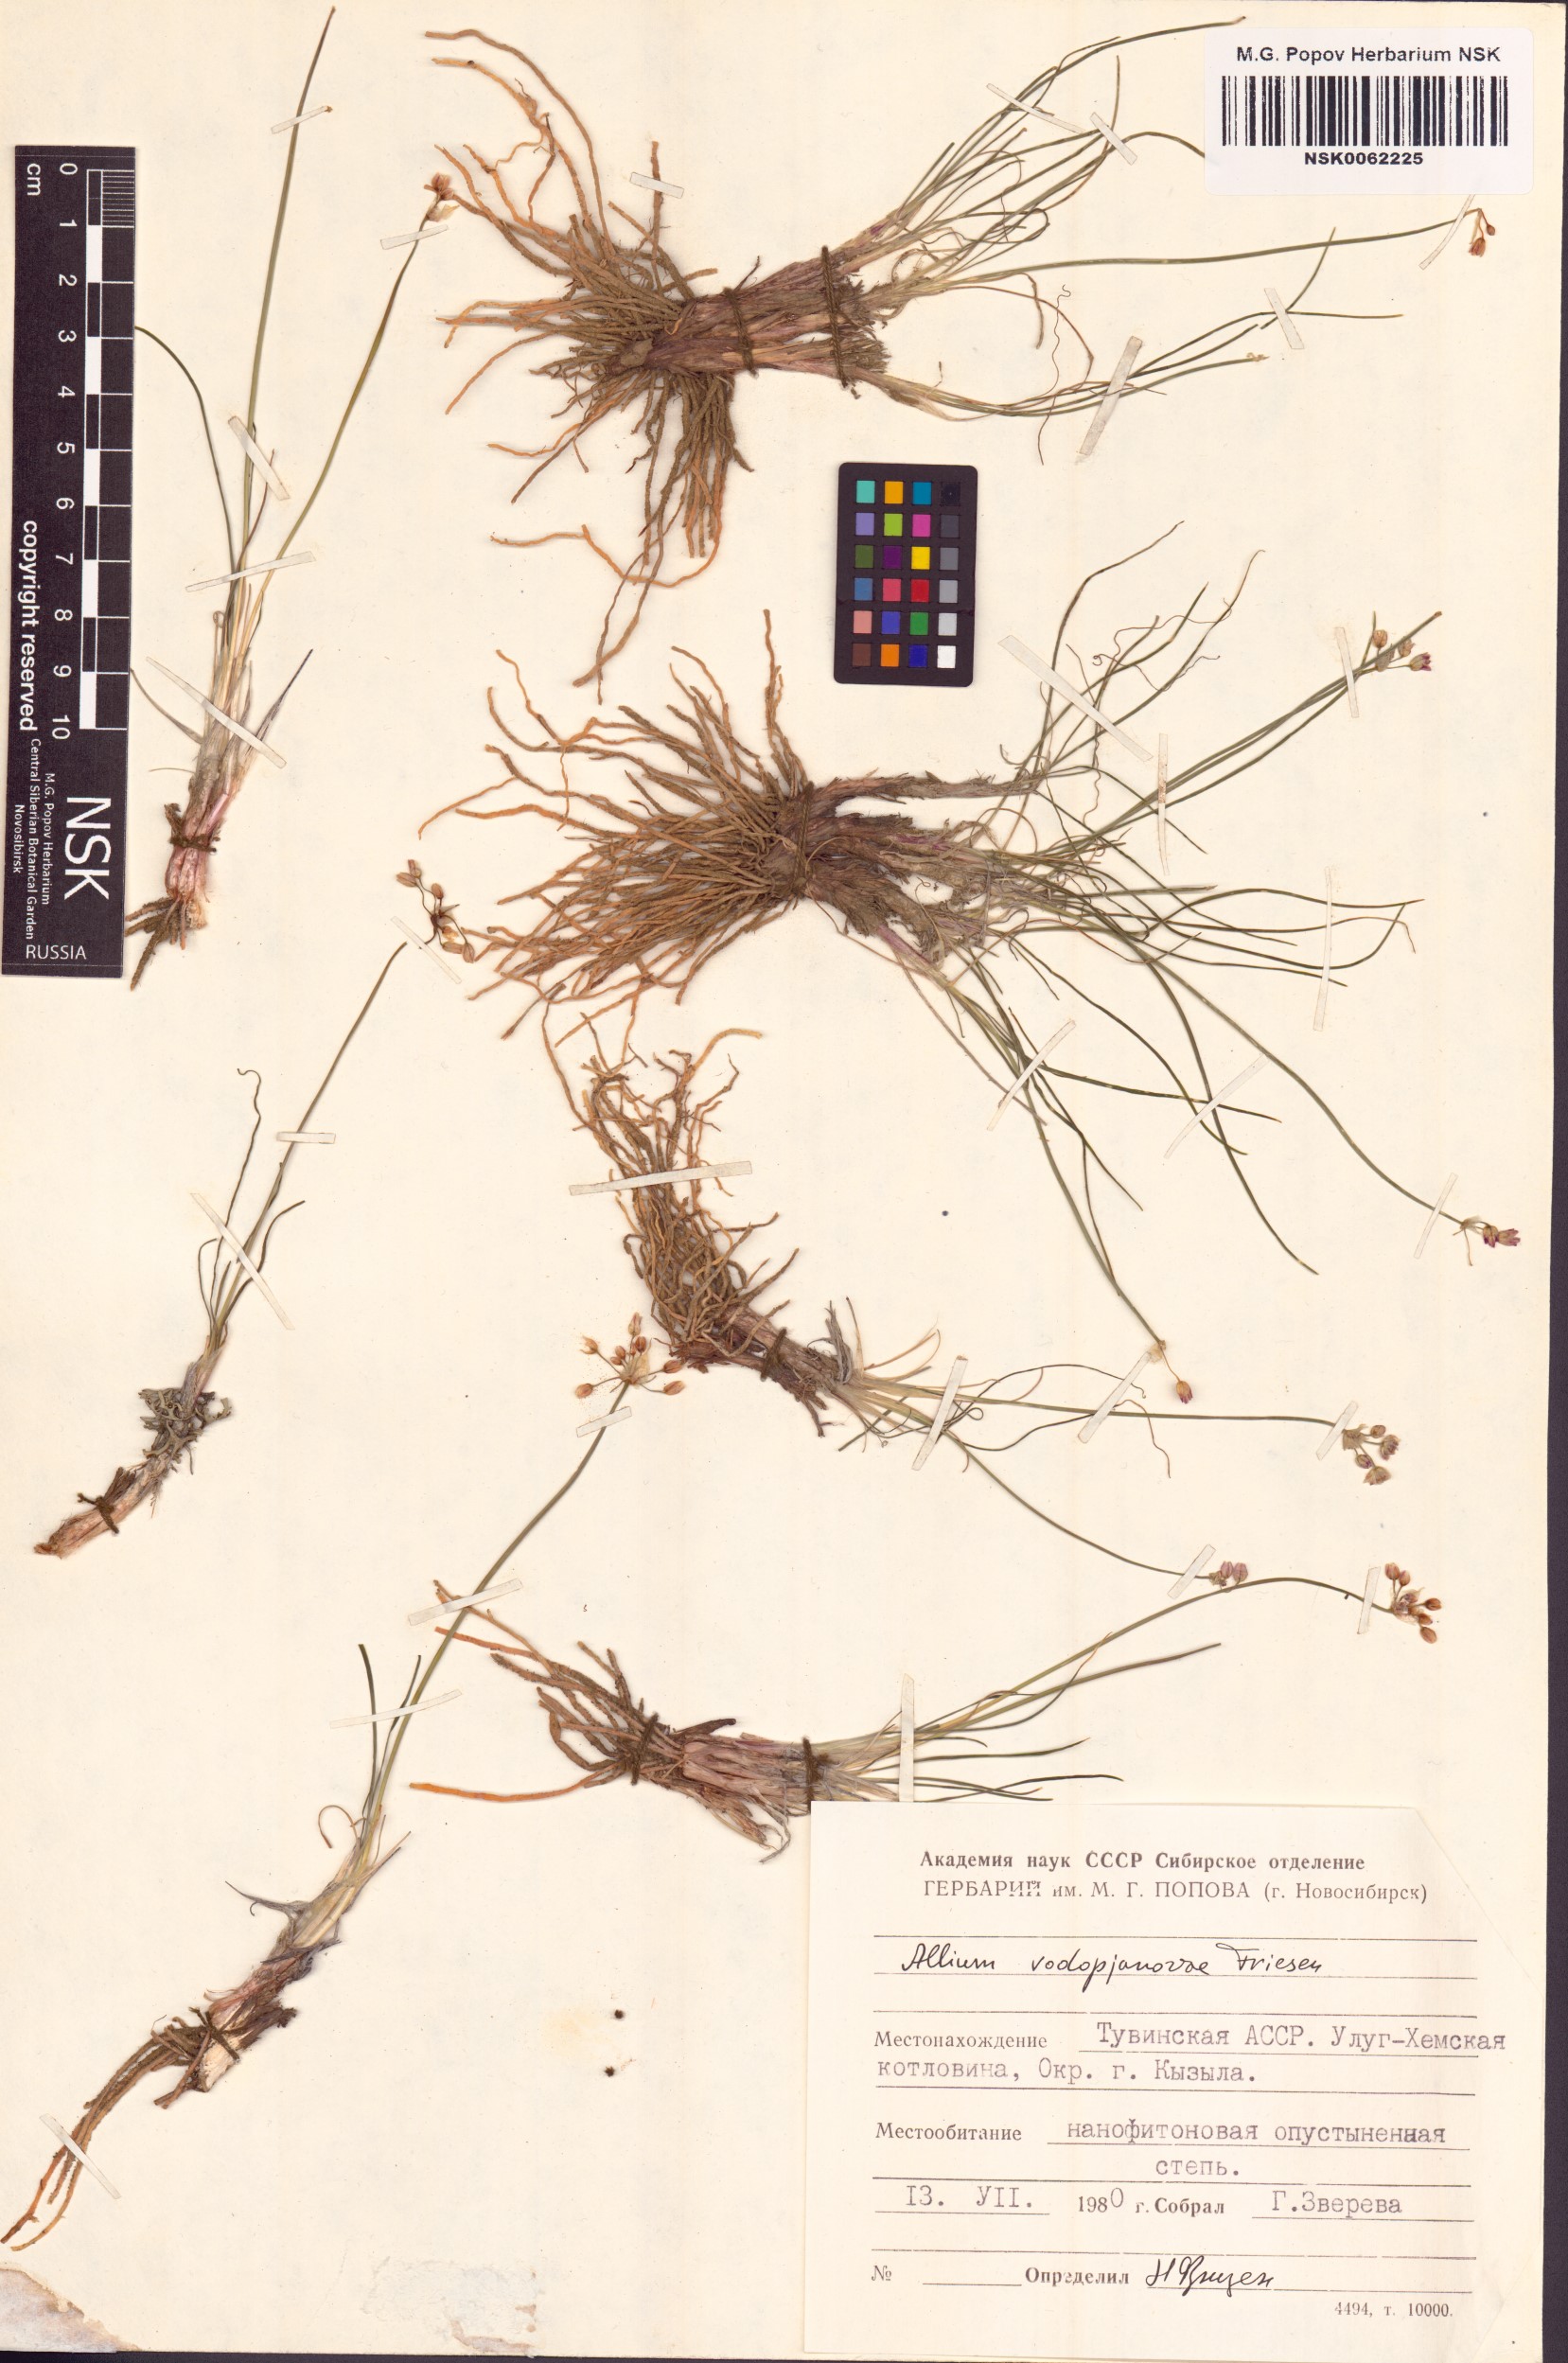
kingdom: Plantae
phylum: Tracheophyta
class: Liliopsida
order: Asparagales
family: Amaryllidaceae
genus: Allium
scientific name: Allium vodopjanovae
